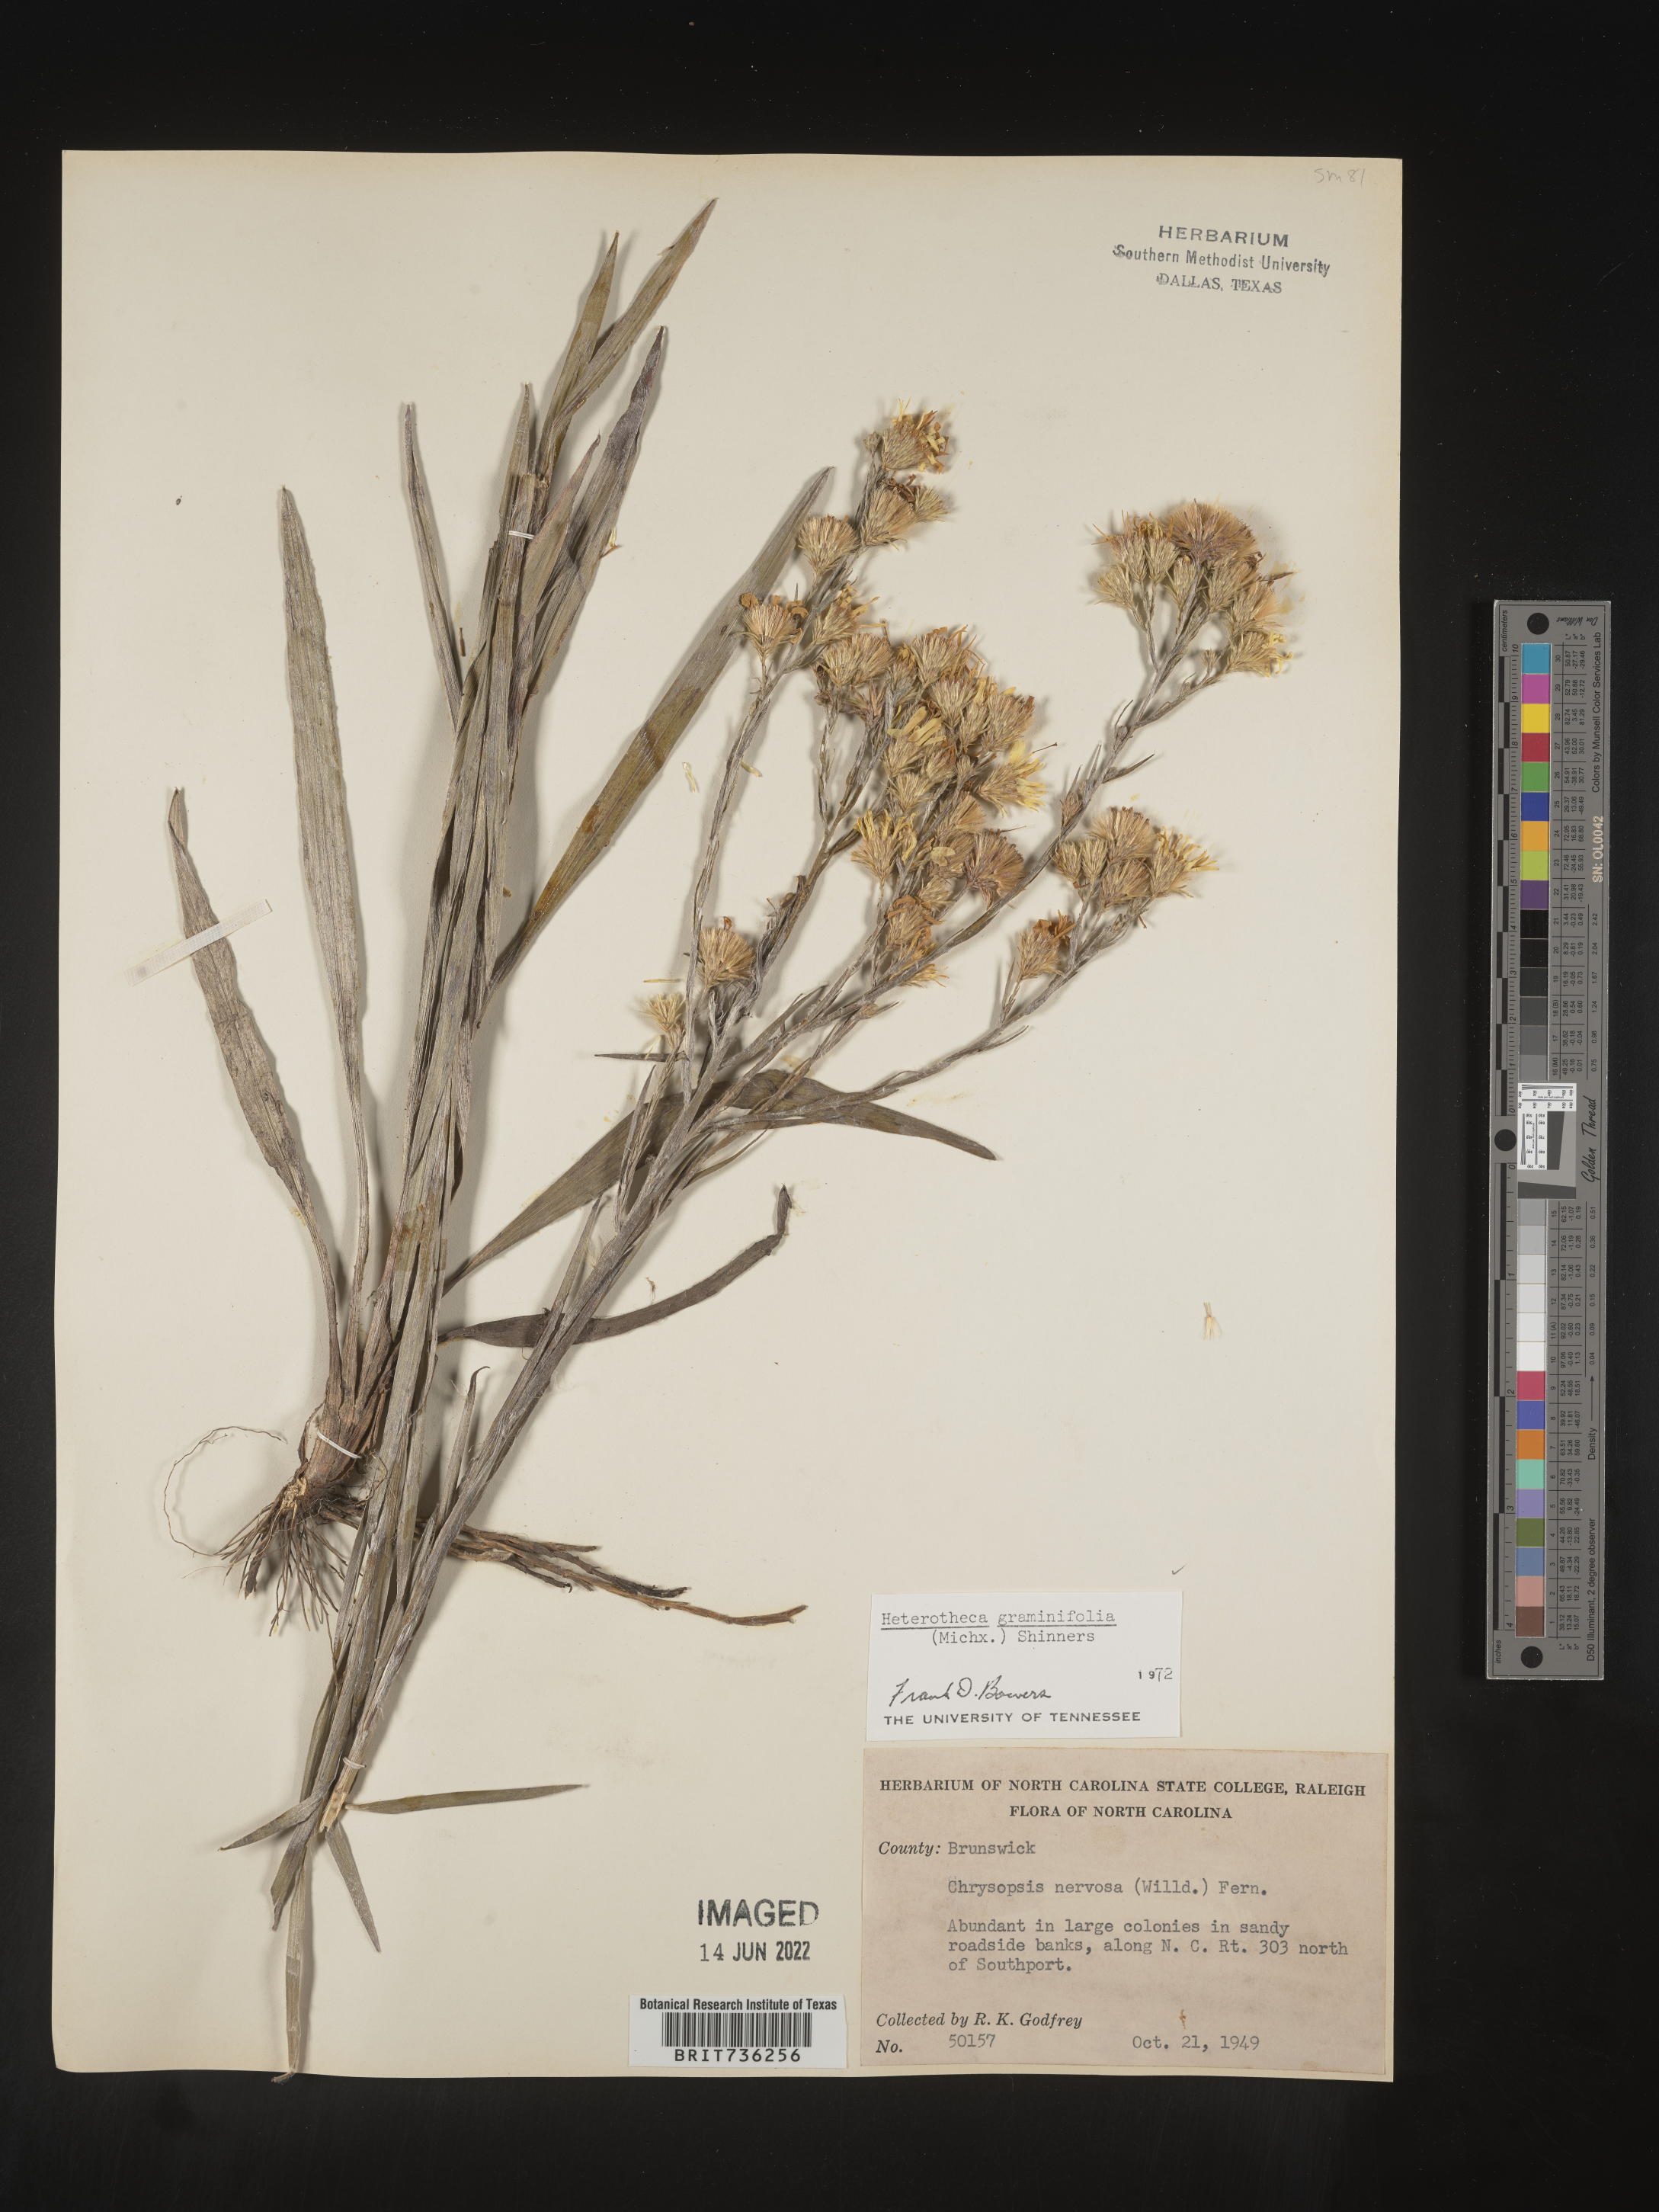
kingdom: Plantae
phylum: Tracheophyta
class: Magnoliopsida
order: Asterales
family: Asteraceae
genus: Pityopsis
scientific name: Pityopsis graminifolia
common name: Grass-leaf golden-aster
